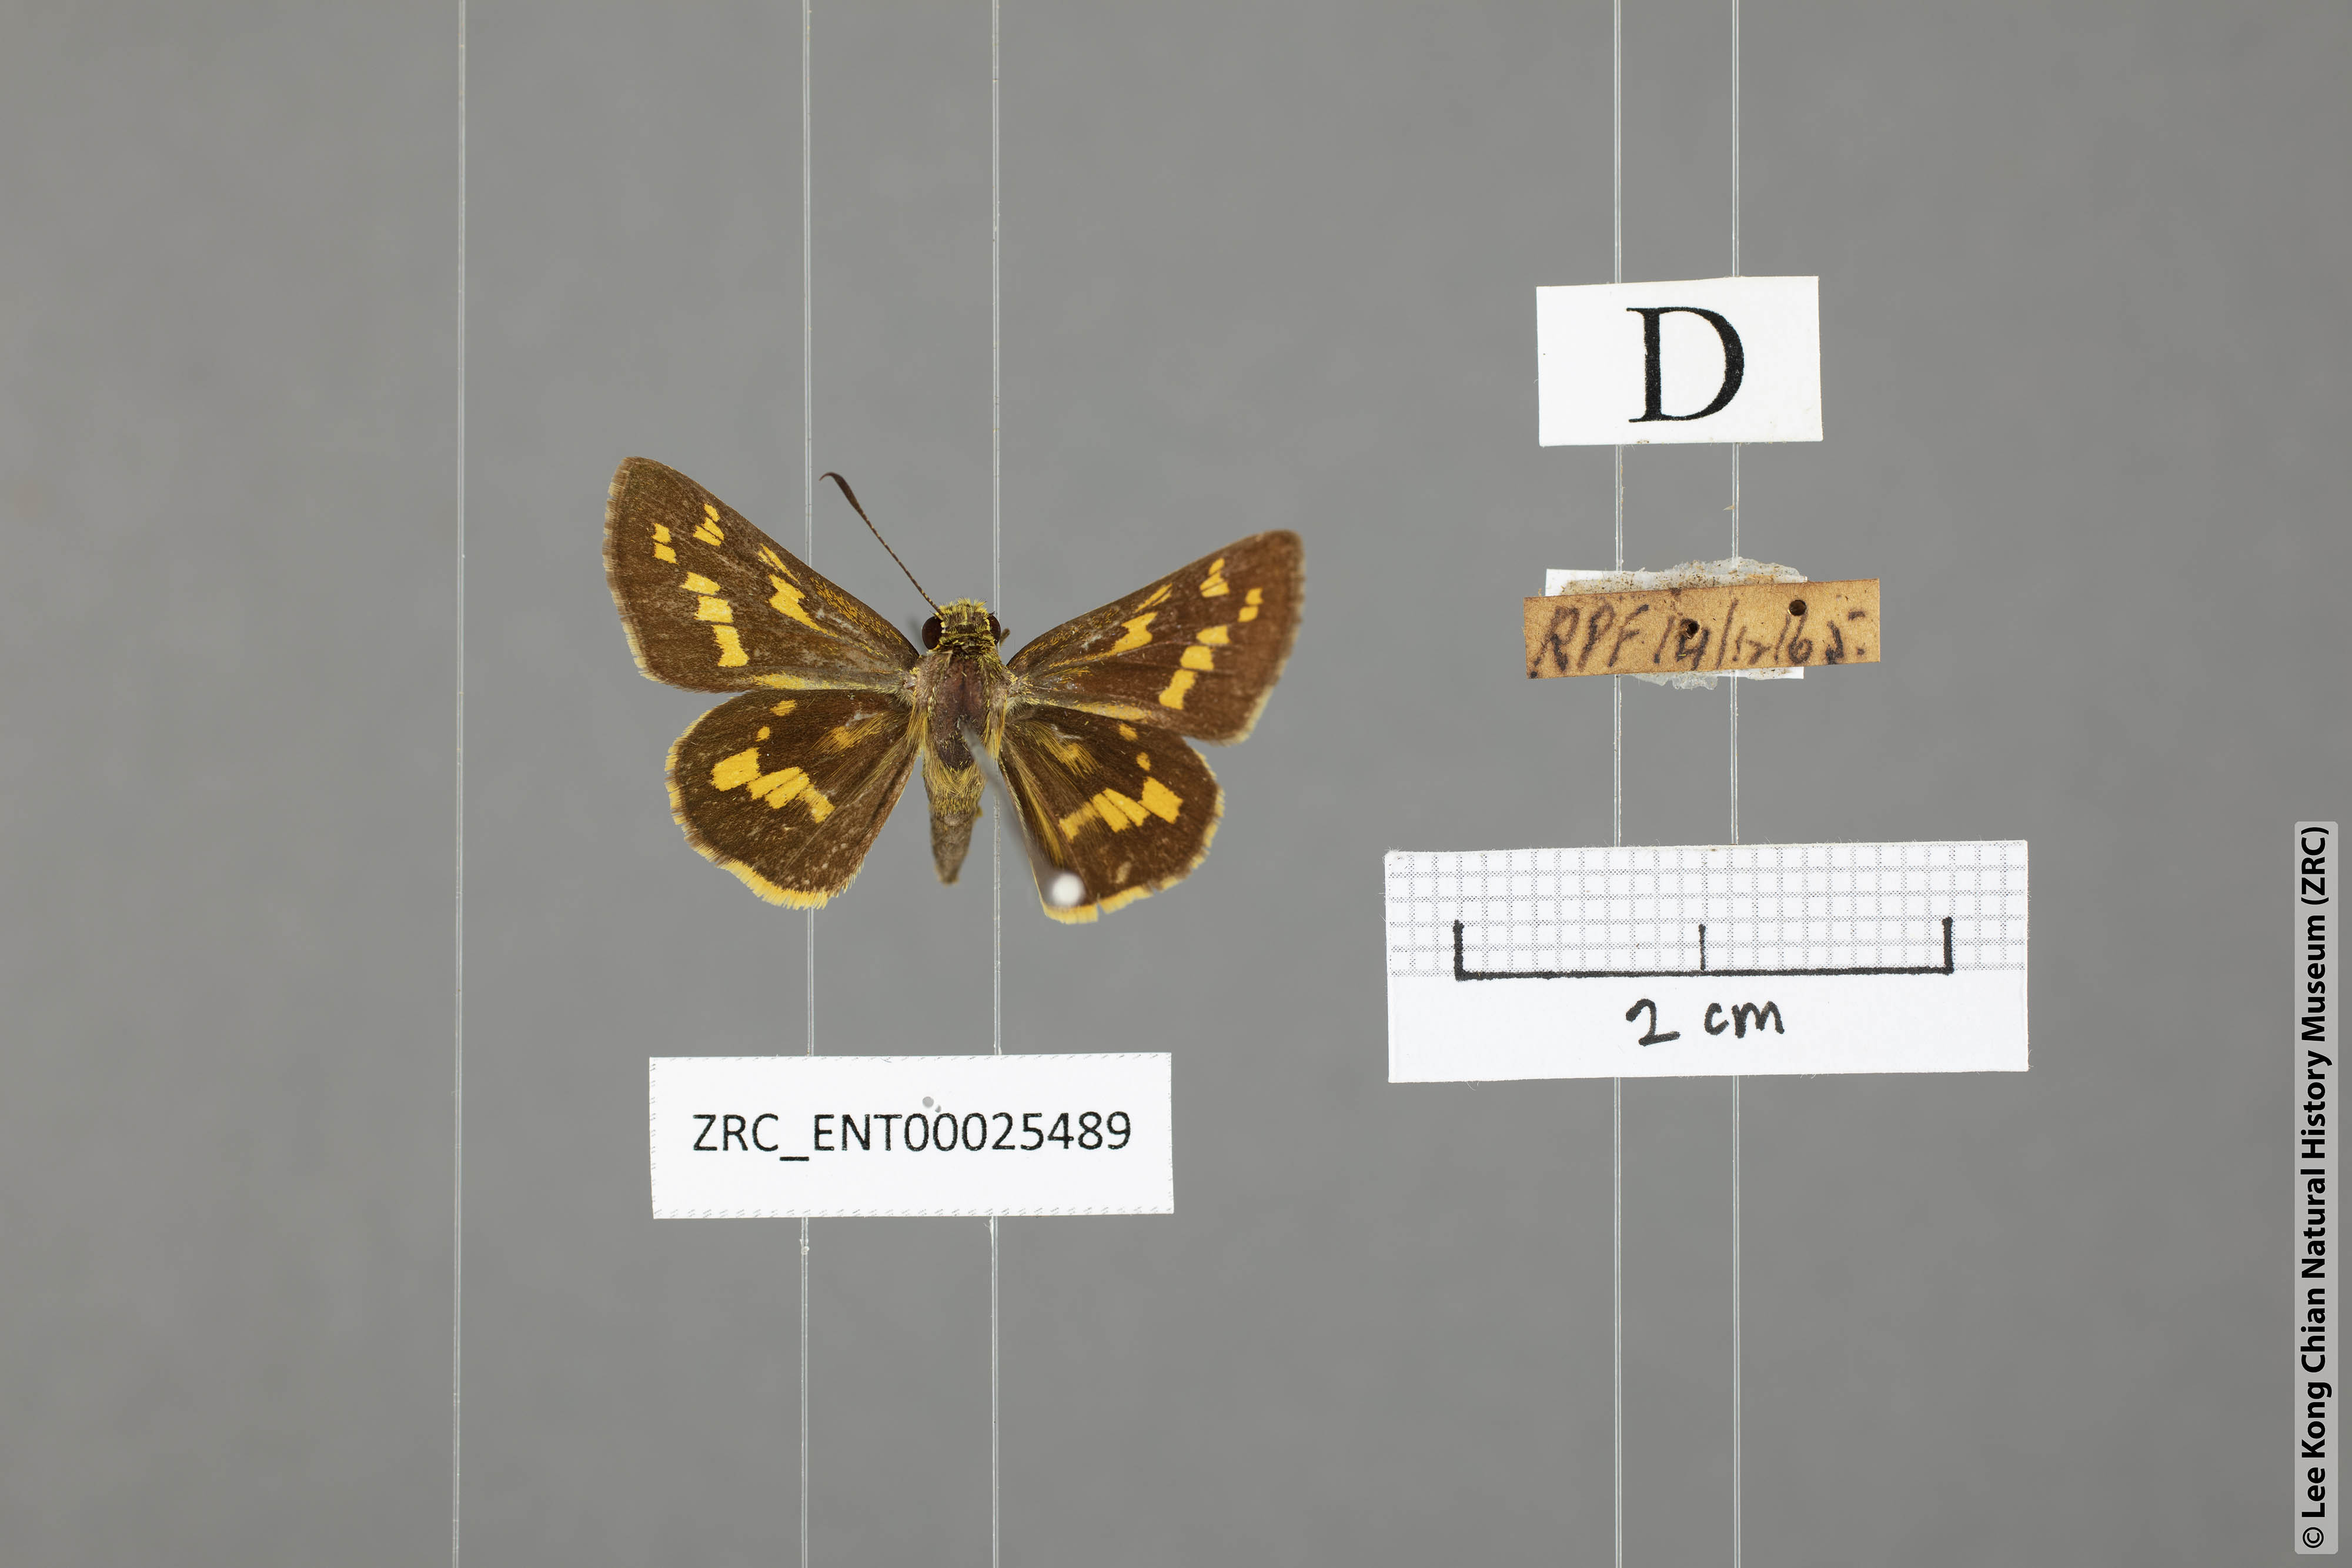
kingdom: Animalia
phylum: Arthropoda
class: Insecta
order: Lepidoptera
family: Hesperiidae
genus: Potanthus
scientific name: Potanthus trachala
